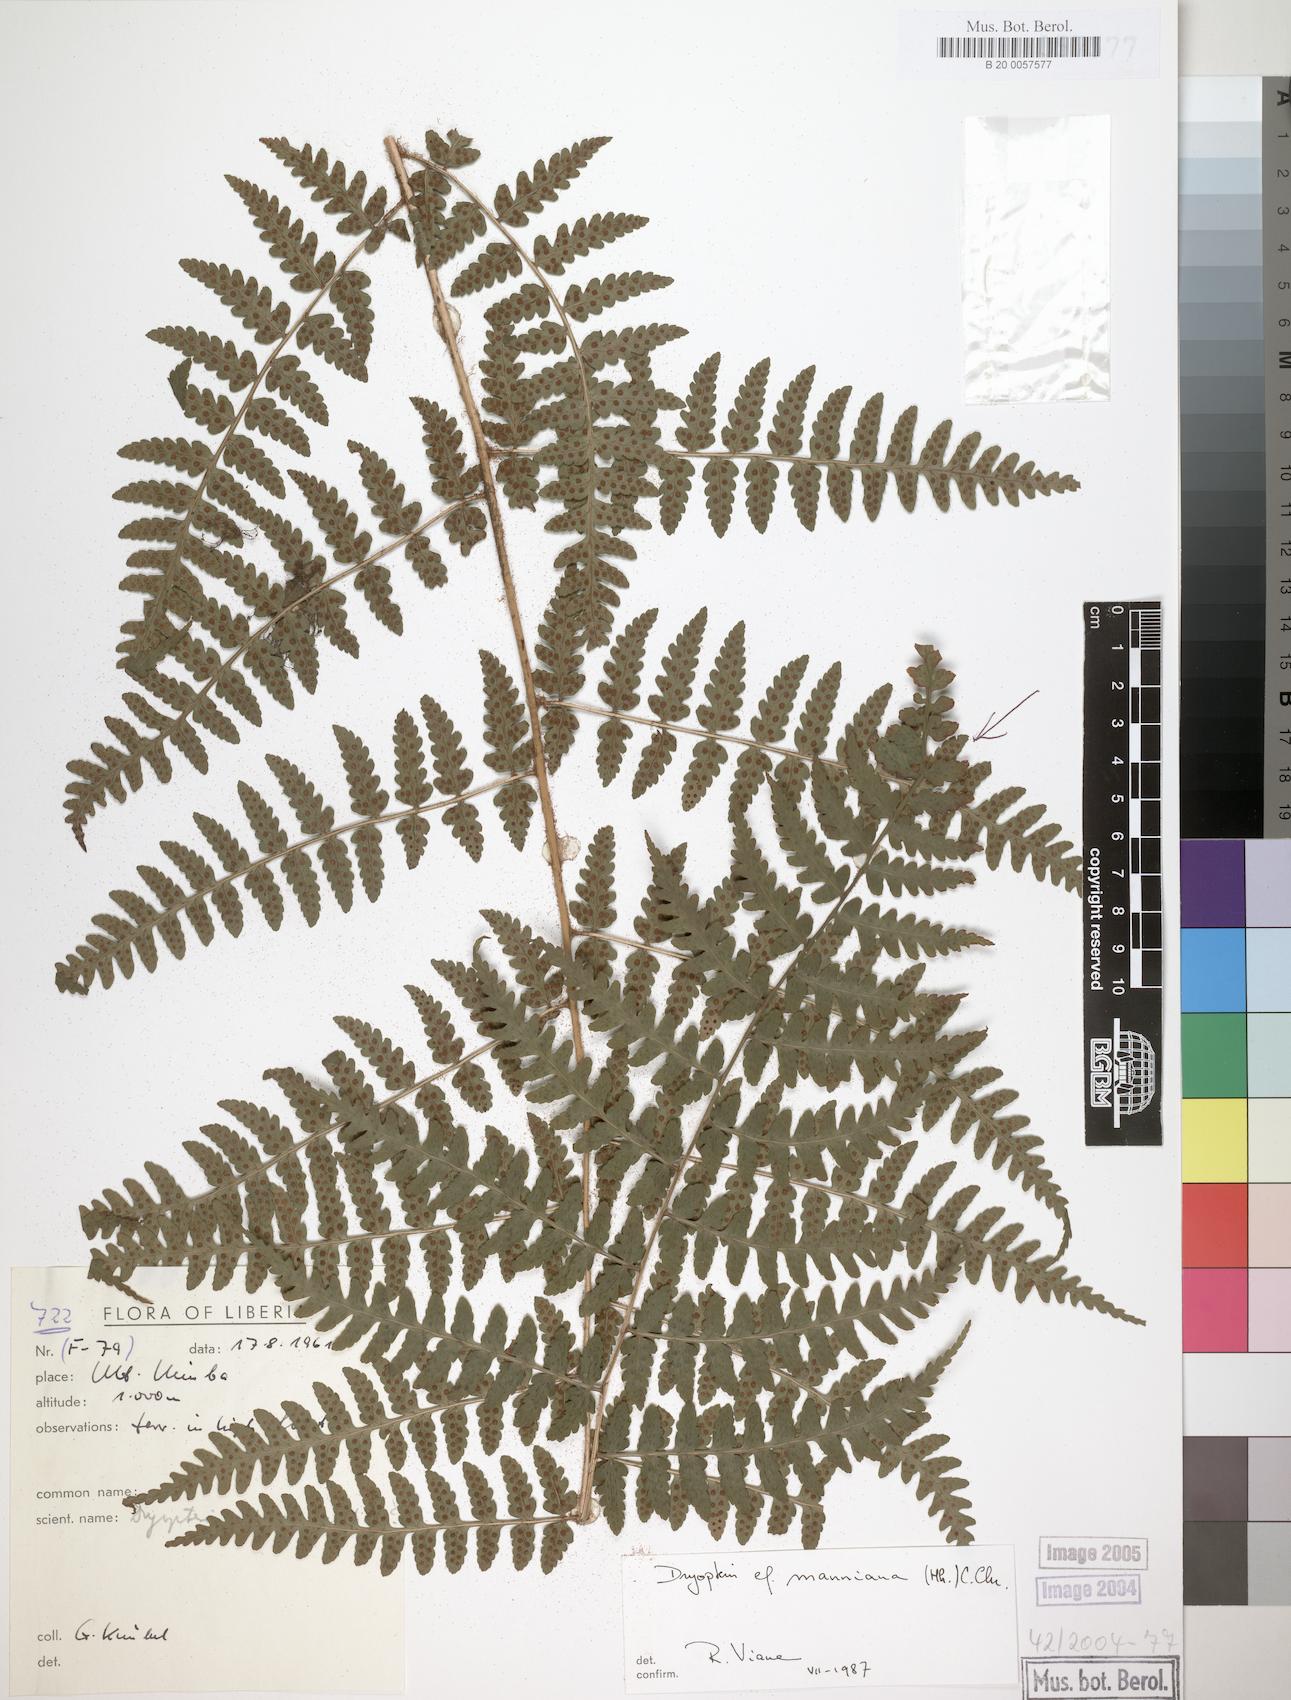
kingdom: Plantae
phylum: Tracheophyta
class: Polypodiopsida
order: Polypodiales
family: Dryopteridaceae
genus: Dryopteris
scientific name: Dryopteris manniana
